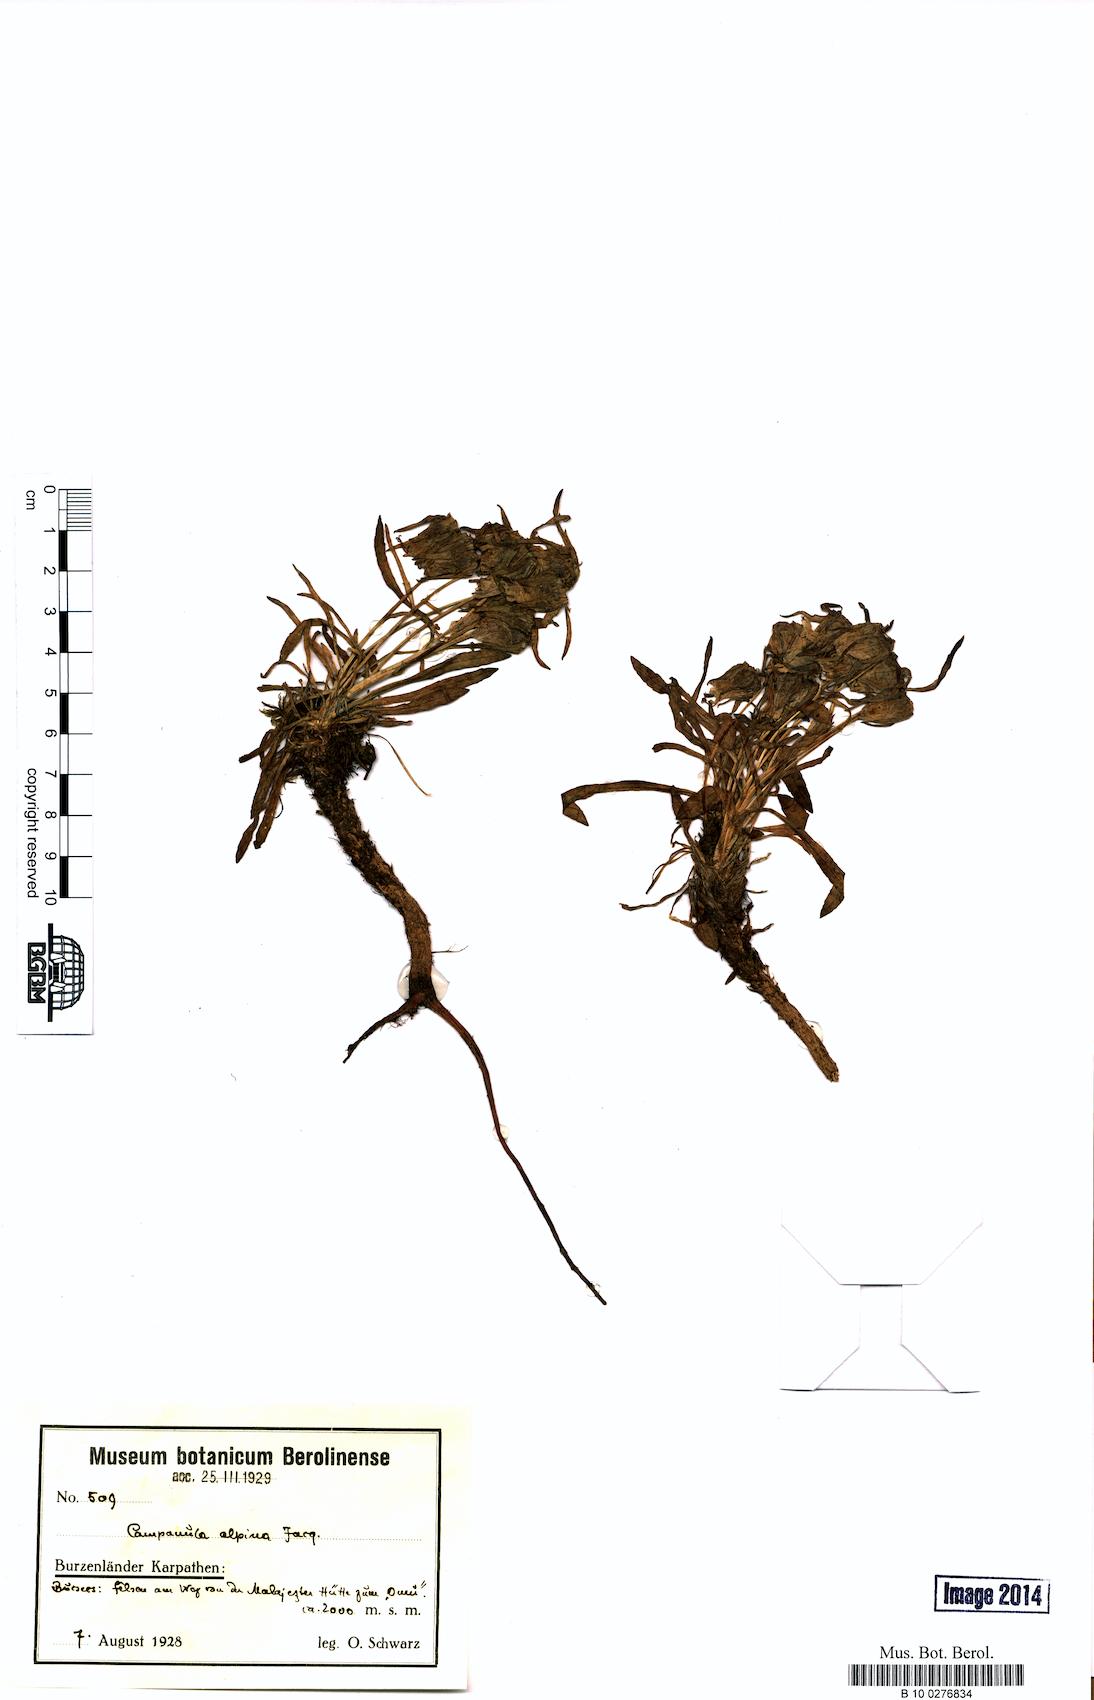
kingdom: Plantae
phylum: Tracheophyta
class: Magnoliopsida
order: Asterales
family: Campanulaceae
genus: Campanula
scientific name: Campanula alpina
